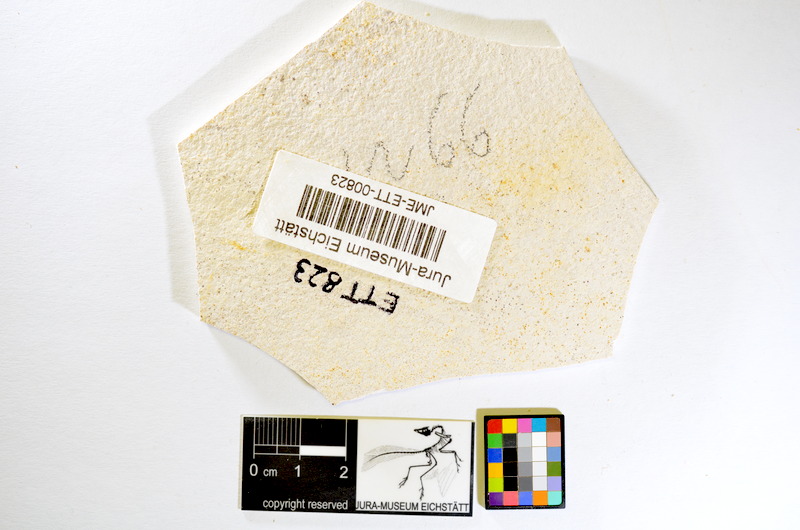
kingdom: Animalia
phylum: Chordata
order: Salmoniformes
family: Orthogonikleithridae
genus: Orthogonikleithrus
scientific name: Orthogonikleithrus hoelli
